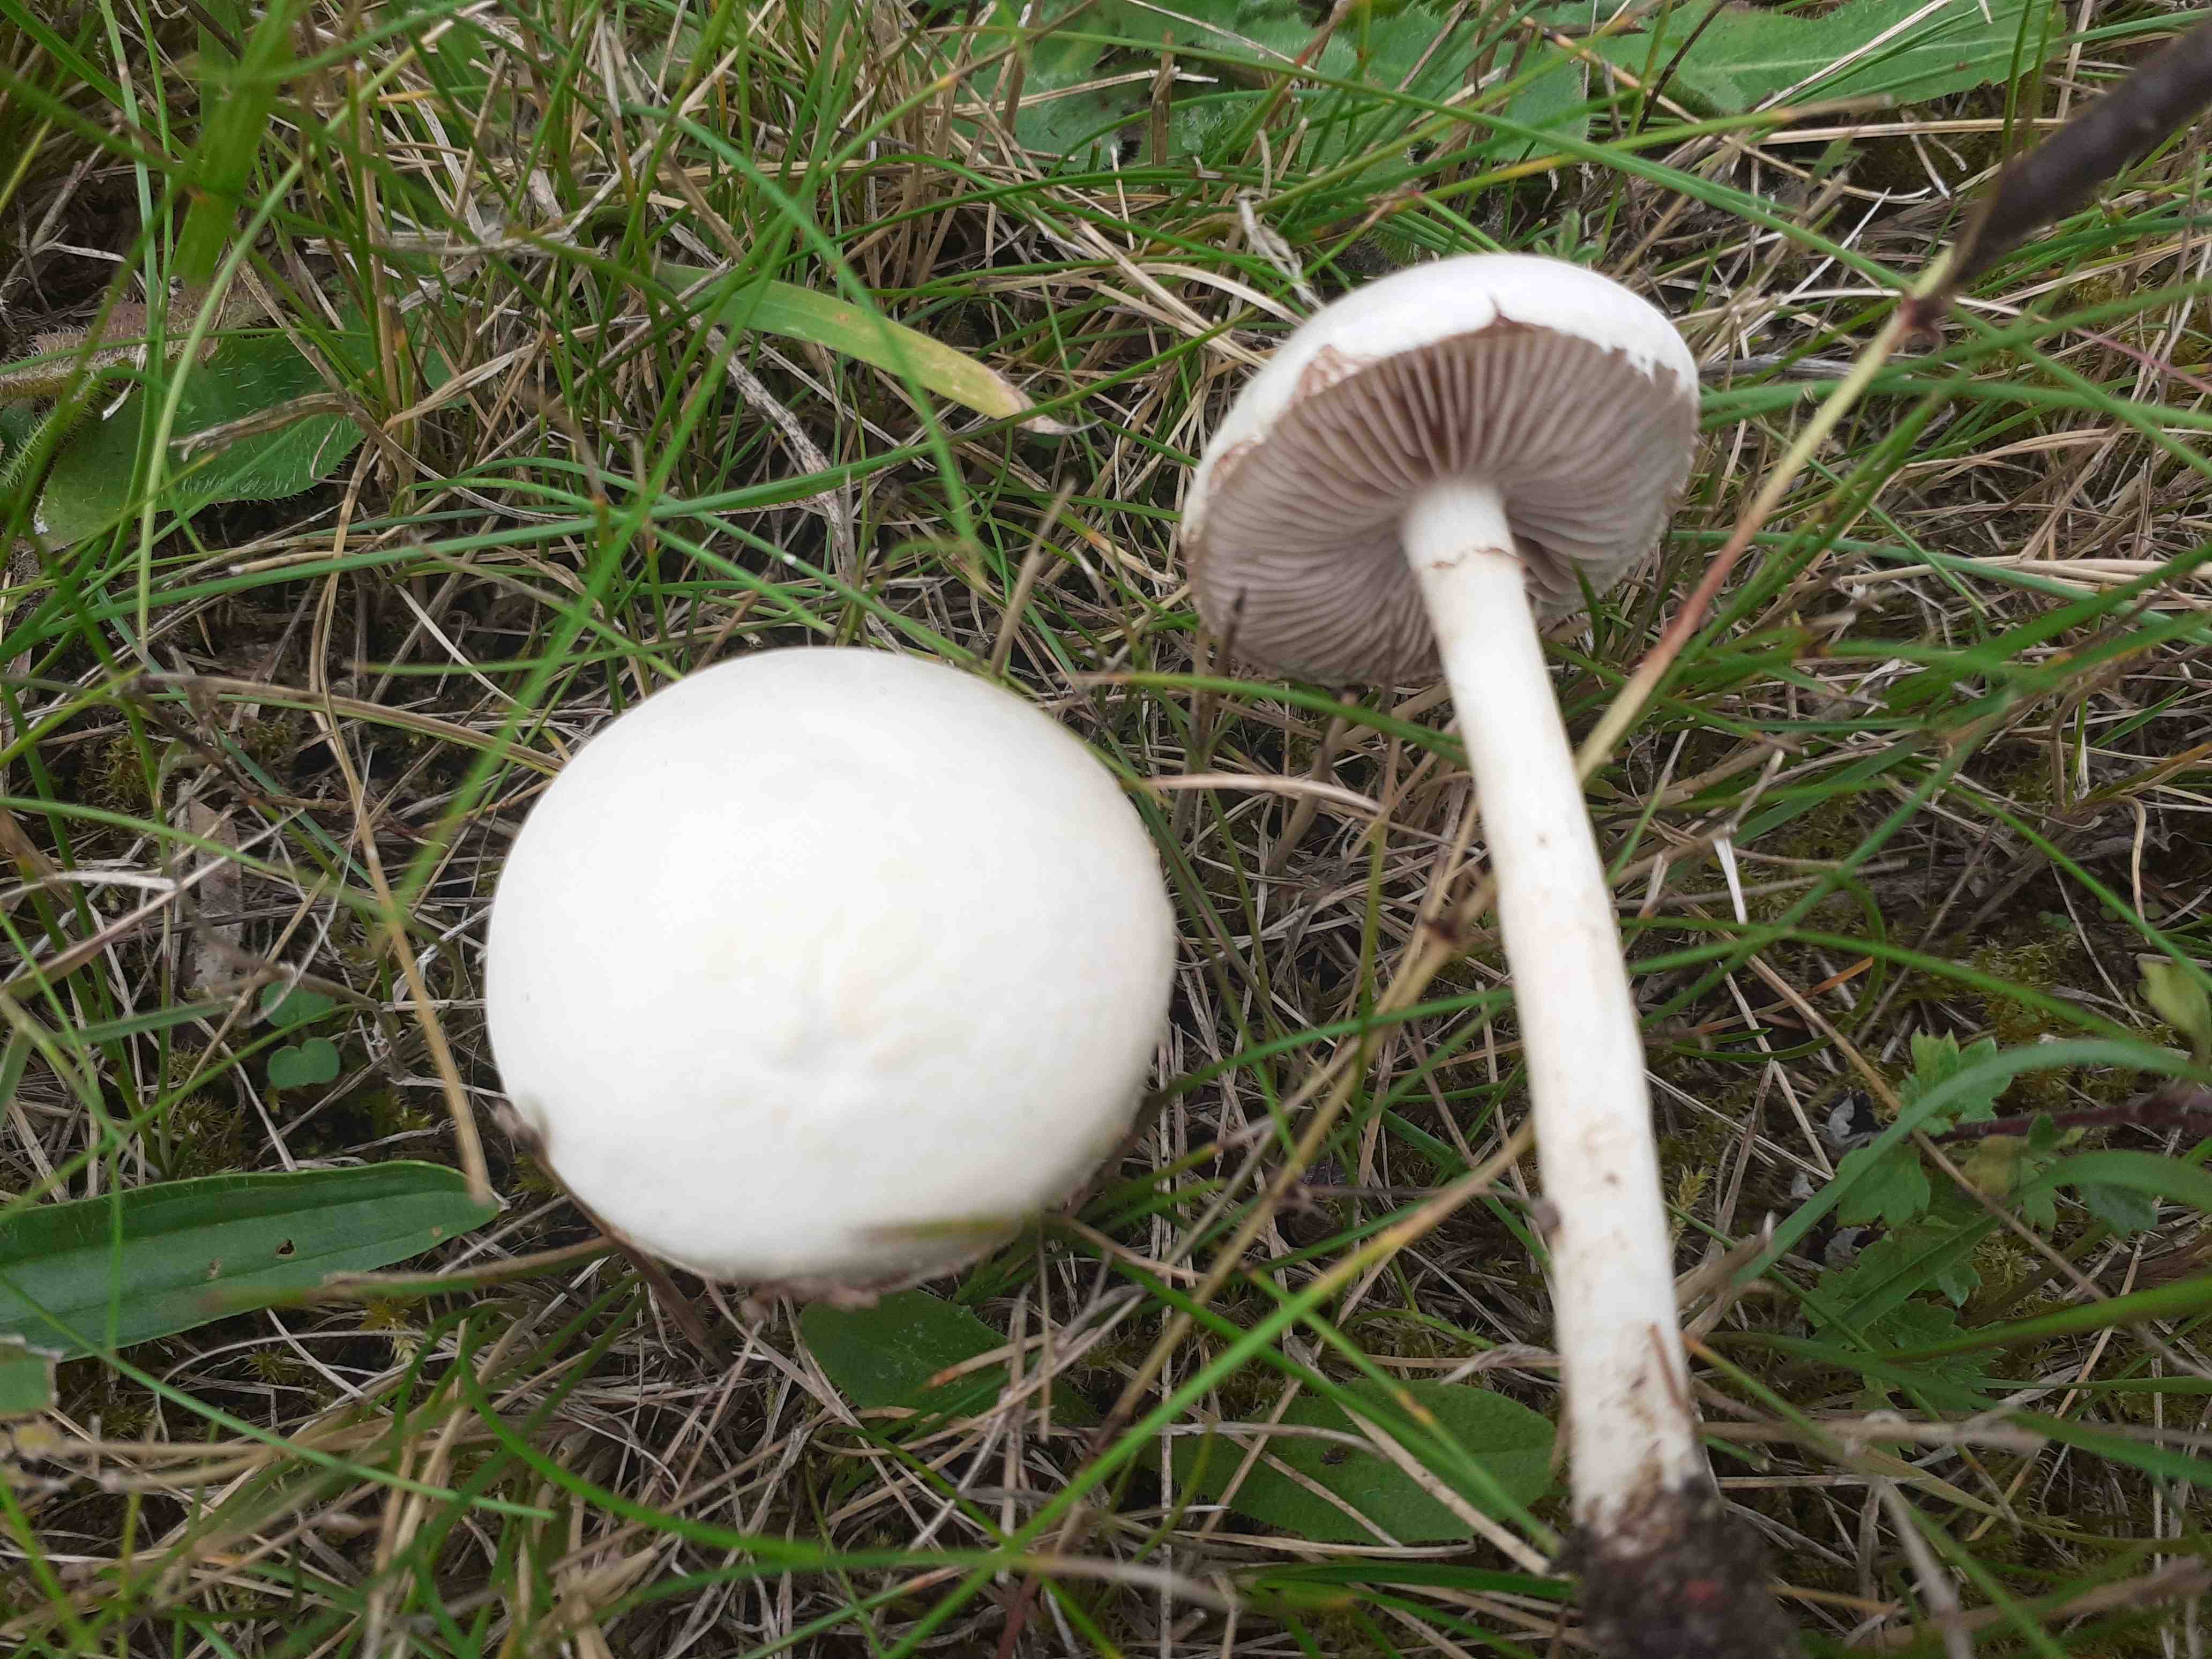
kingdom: Fungi
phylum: Basidiomycota
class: Agaricomycetes
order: Agaricales
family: Strophariaceae
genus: Agrocybe
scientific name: Agrocybe dura
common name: fastkødet agerhat
